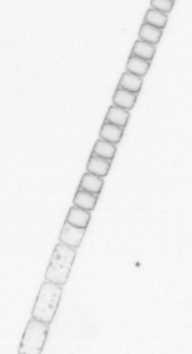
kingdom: Chromista
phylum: Ochrophyta
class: Bacillariophyceae
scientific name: Bacillariophyceae
